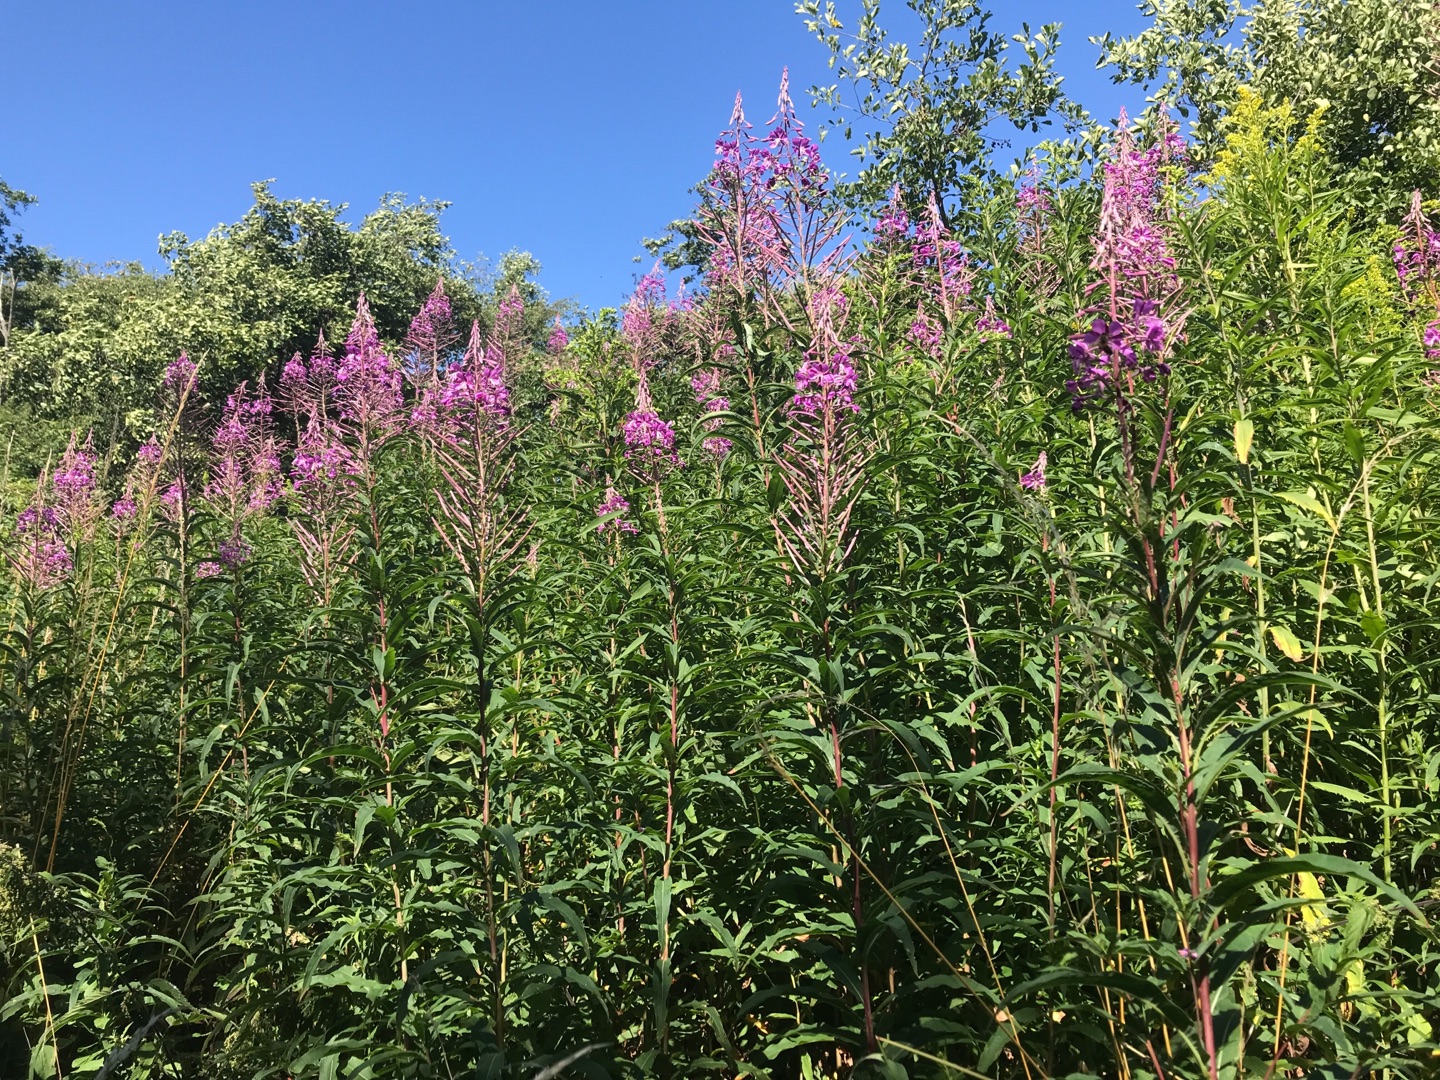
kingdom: Plantae
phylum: Tracheophyta
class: Magnoliopsida
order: Myrtales
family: Onagraceae
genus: Chamaenerion
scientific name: Chamaenerion angustifolium
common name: Gederams
